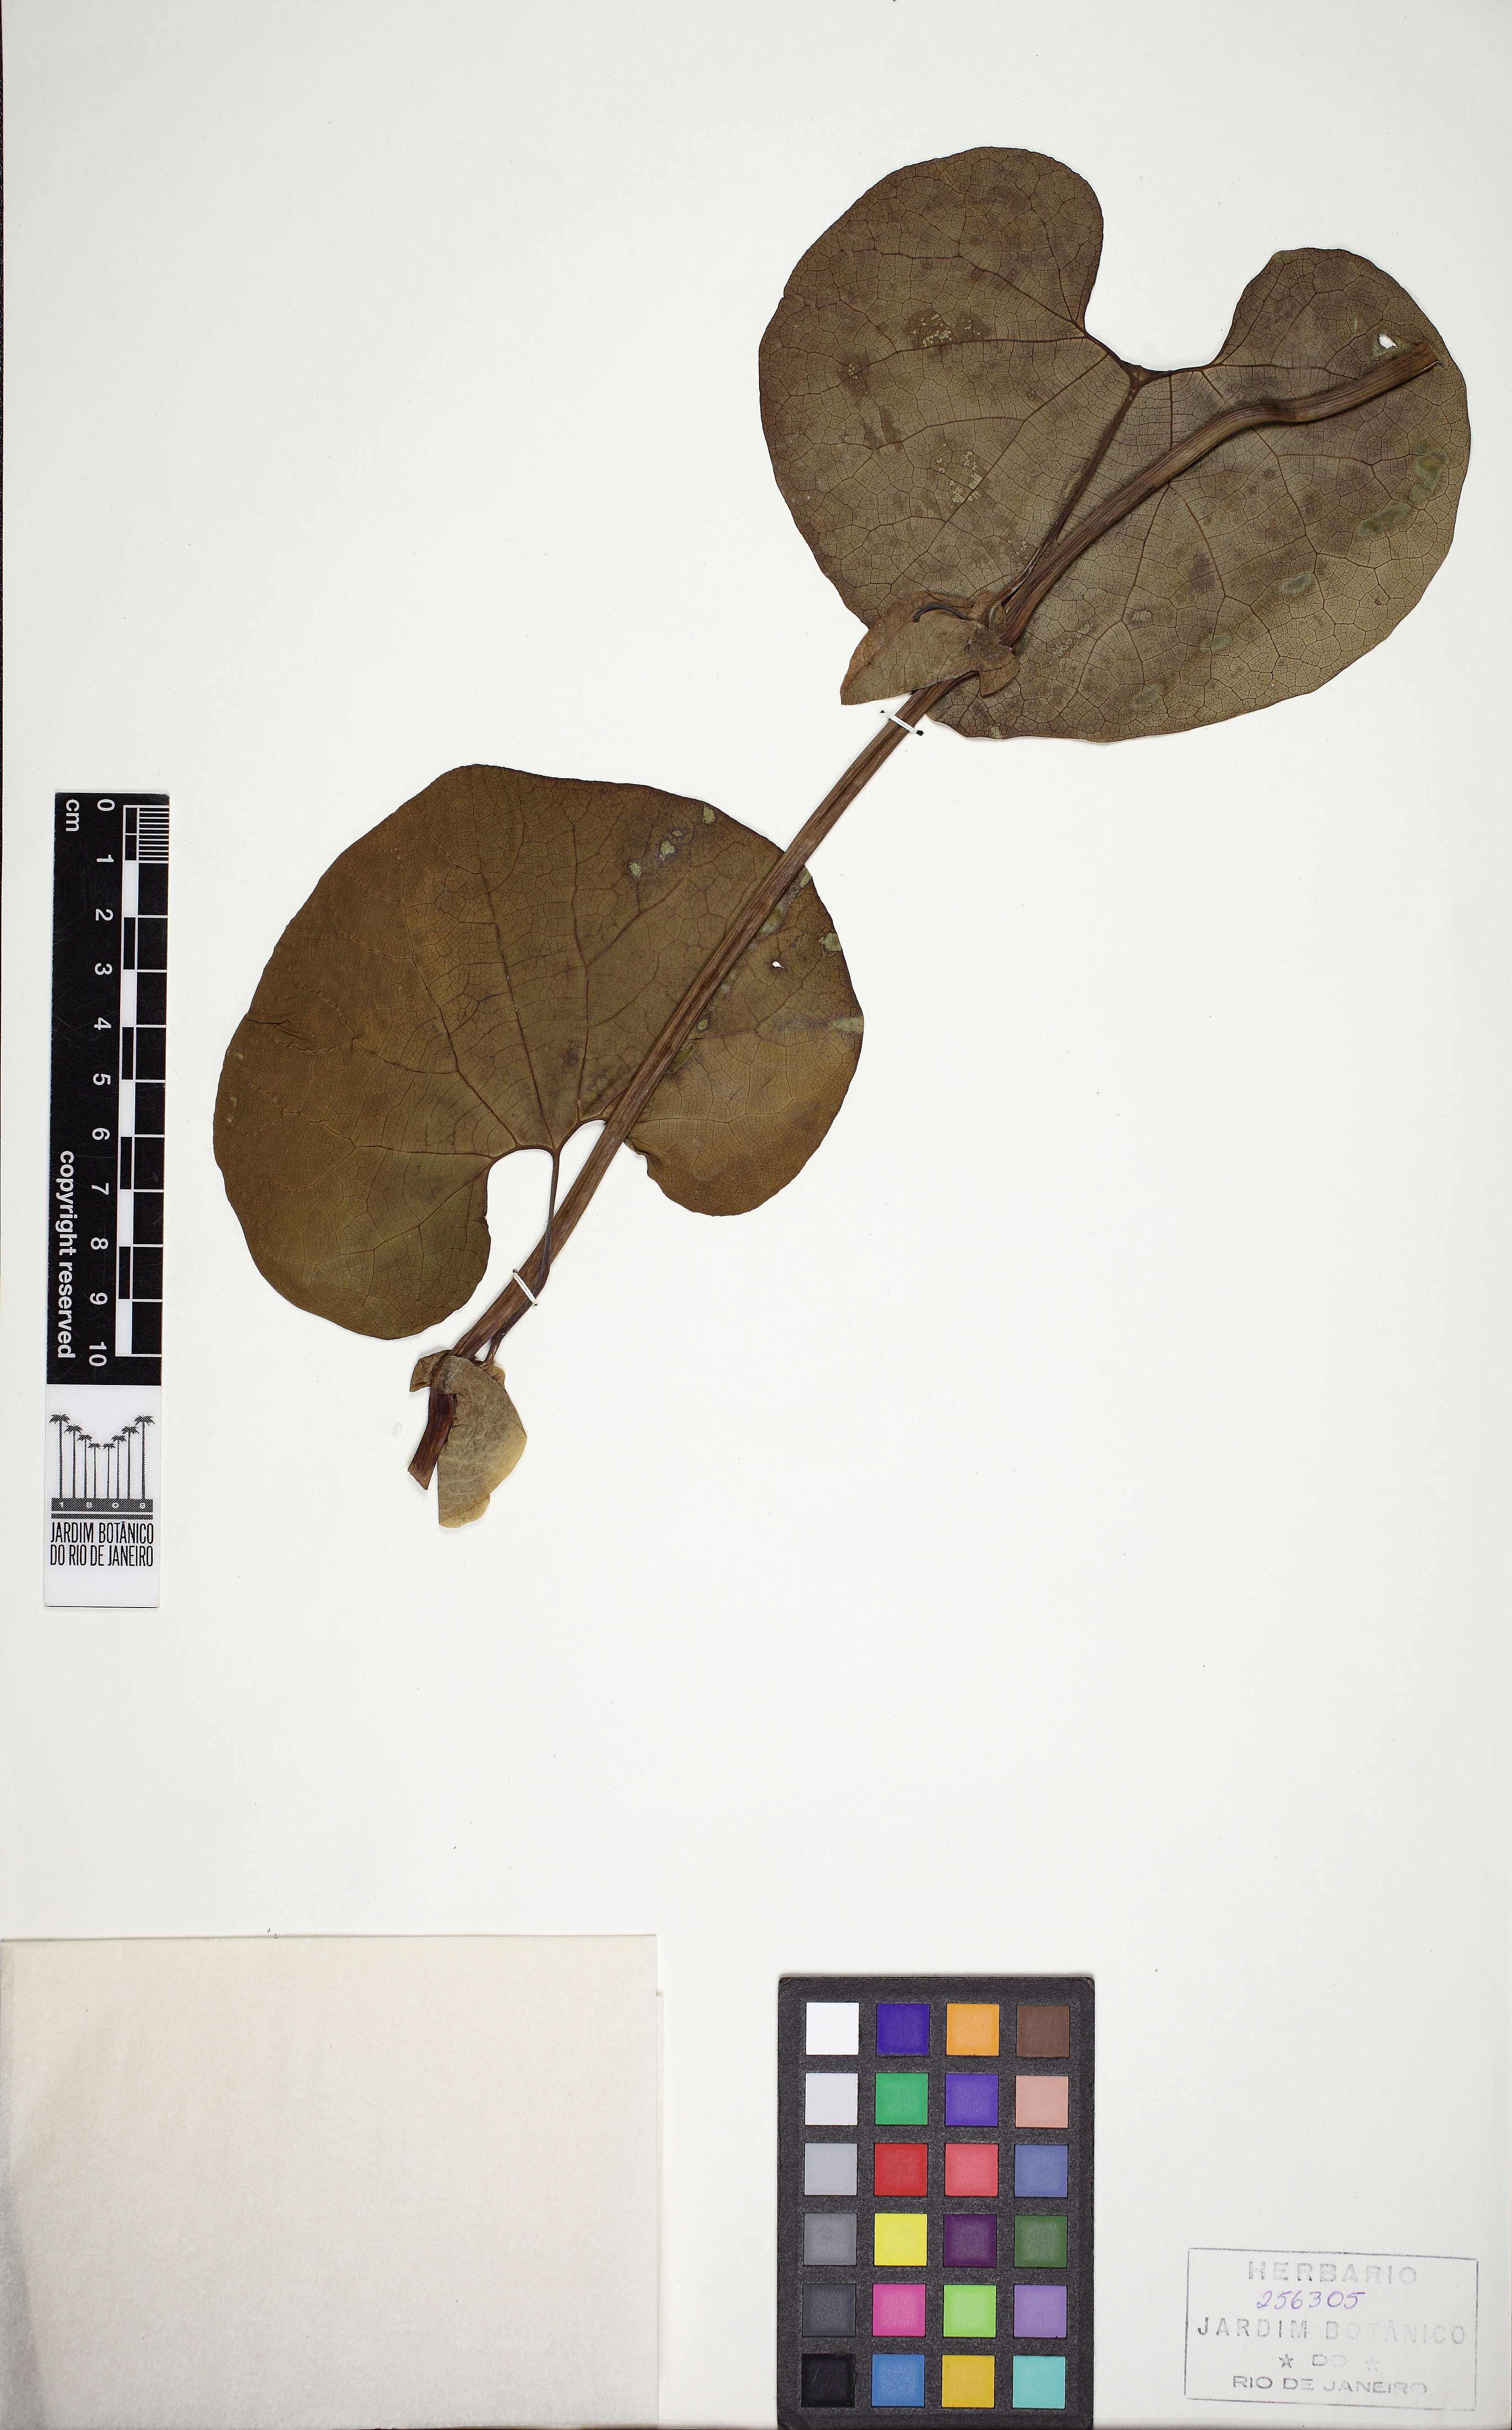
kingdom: Plantae
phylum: Tracheophyta
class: Magnoliopsida
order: Piperales
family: Aristolochiaceae
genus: Aristolochia
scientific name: Aristolochia labiata
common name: Mottled dutchman's pipe
